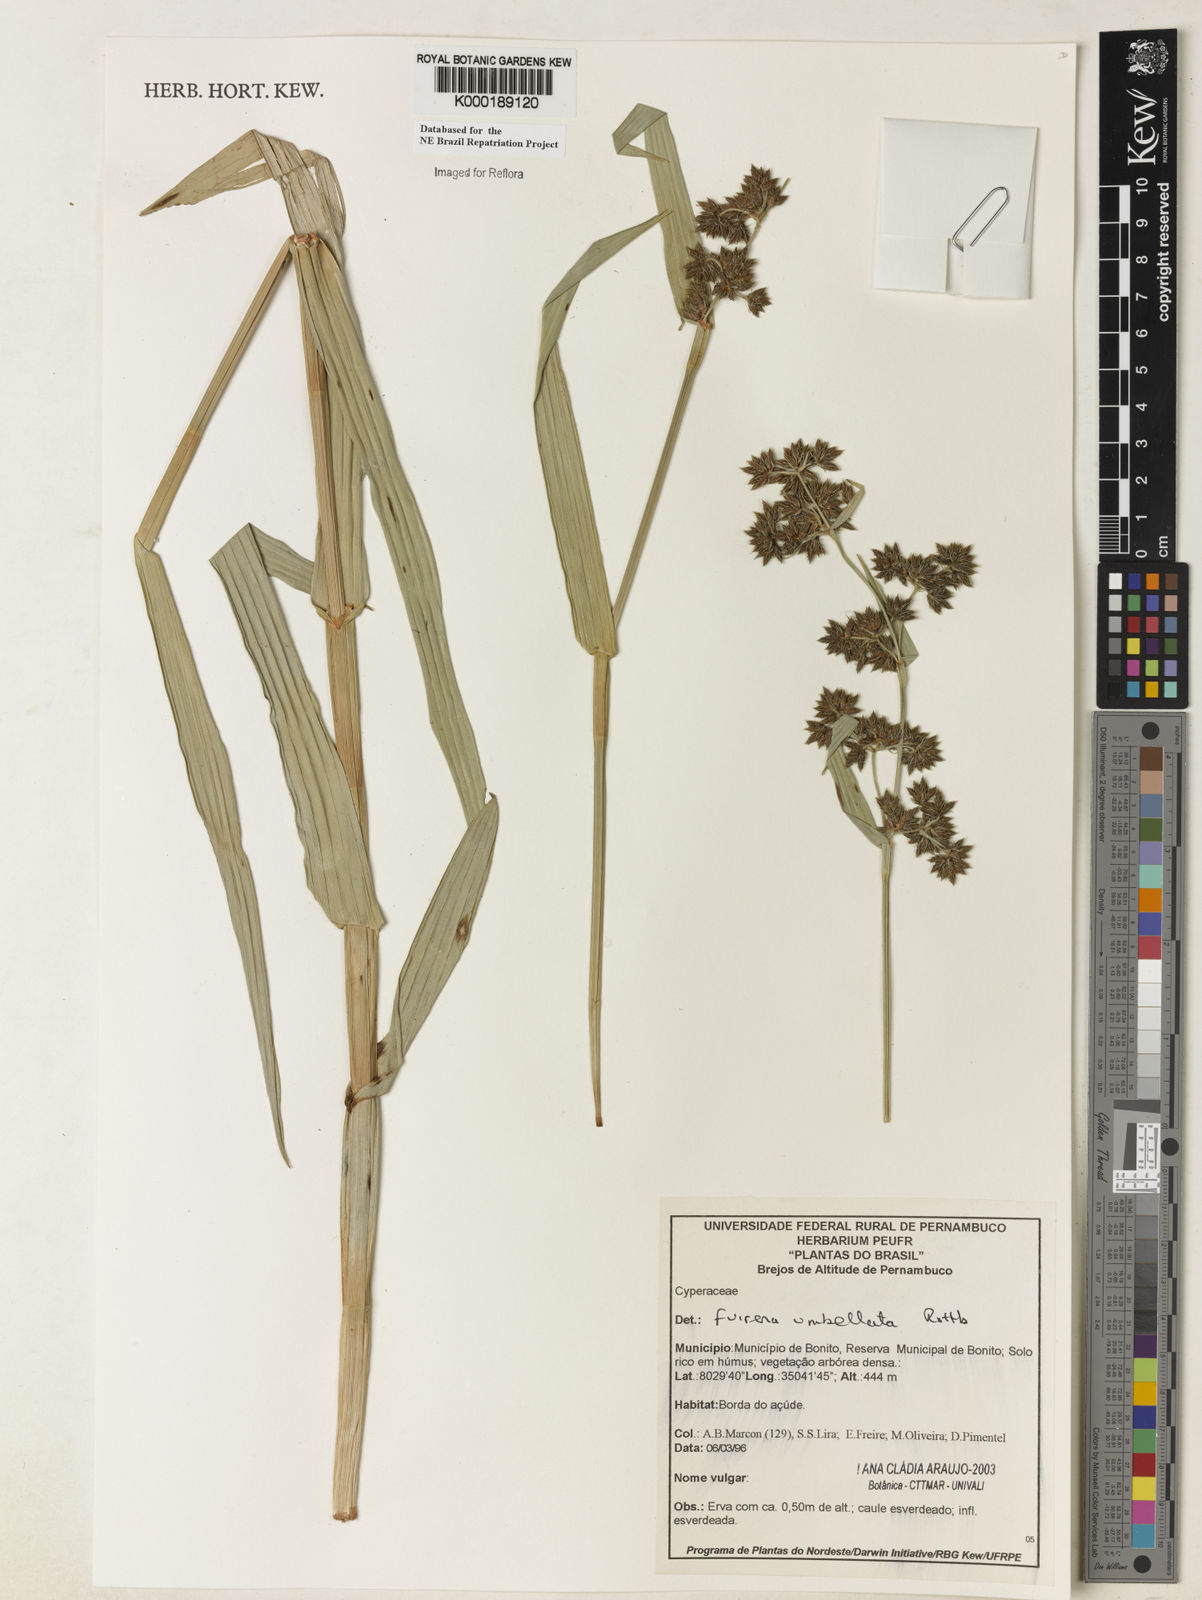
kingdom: Plantae
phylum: Tracheophyta
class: Liliopsida
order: Poales
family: Cyperaceae
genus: Fuirena
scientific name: Fuirena umbellata
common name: Yefen
